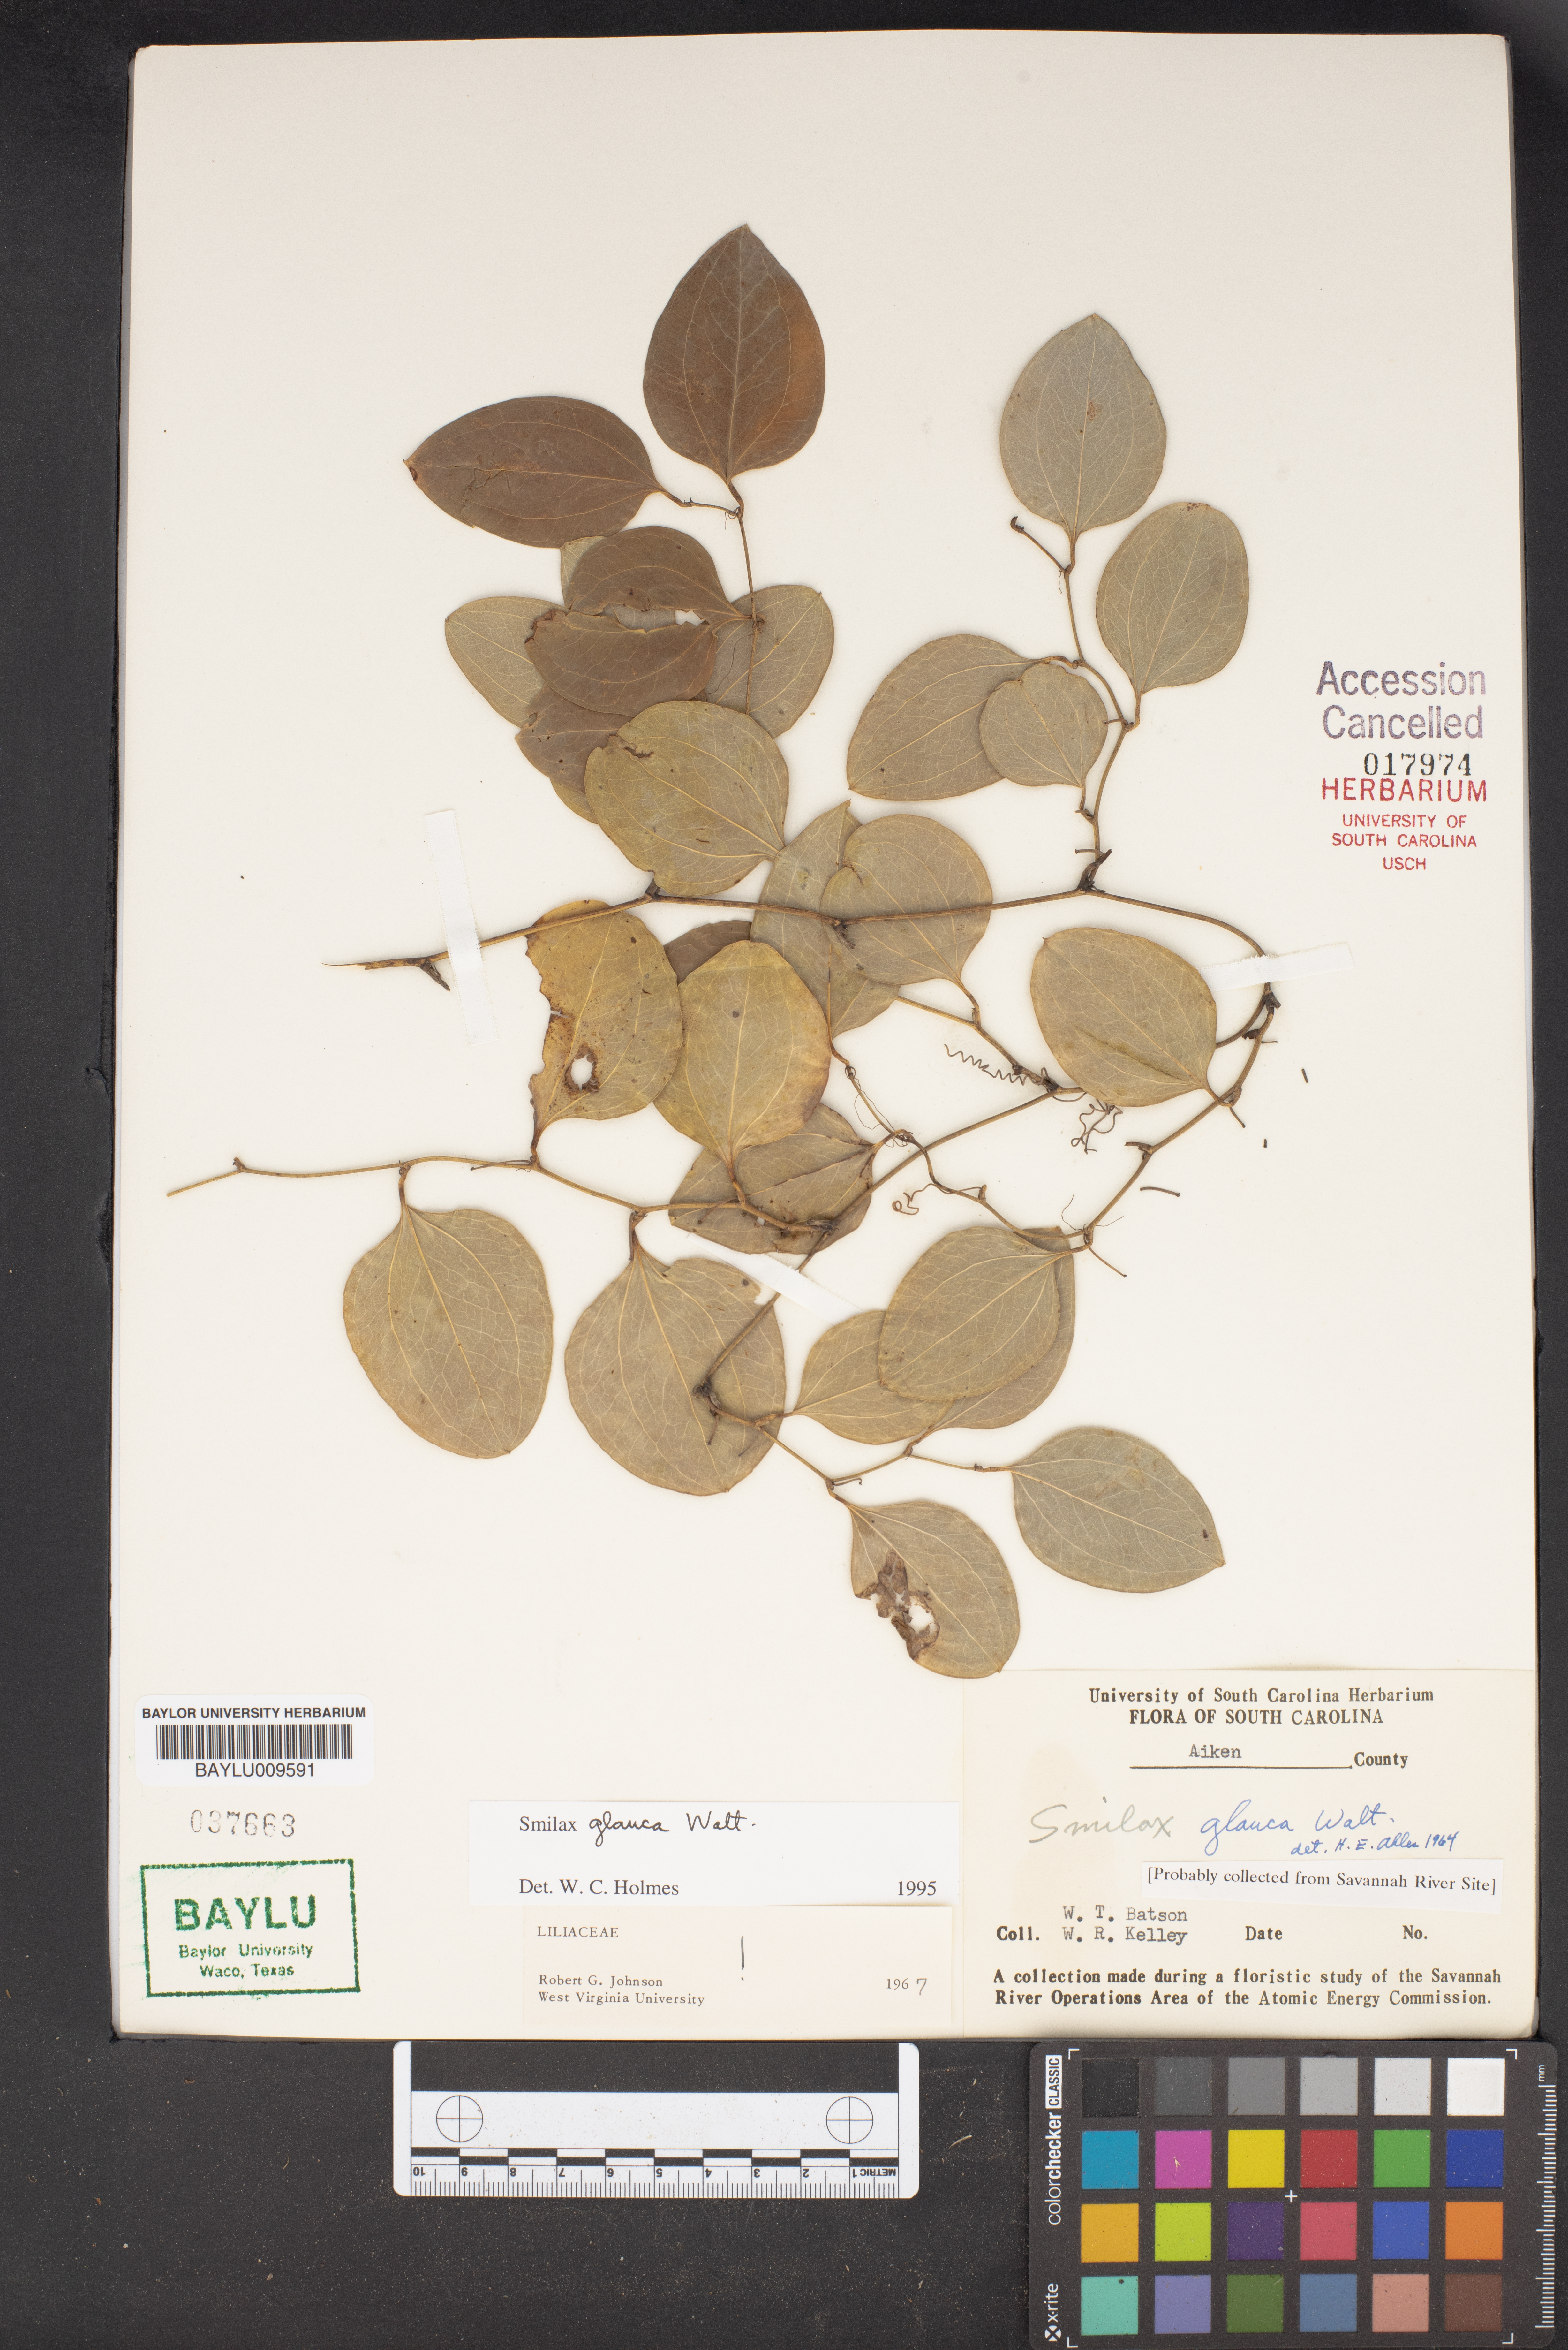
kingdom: Plantae
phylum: Tracheophyta
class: Liliopsida
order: Liliales
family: Smilacaceae
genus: Smilax
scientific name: Smilax glauca
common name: Cat greenbrier
